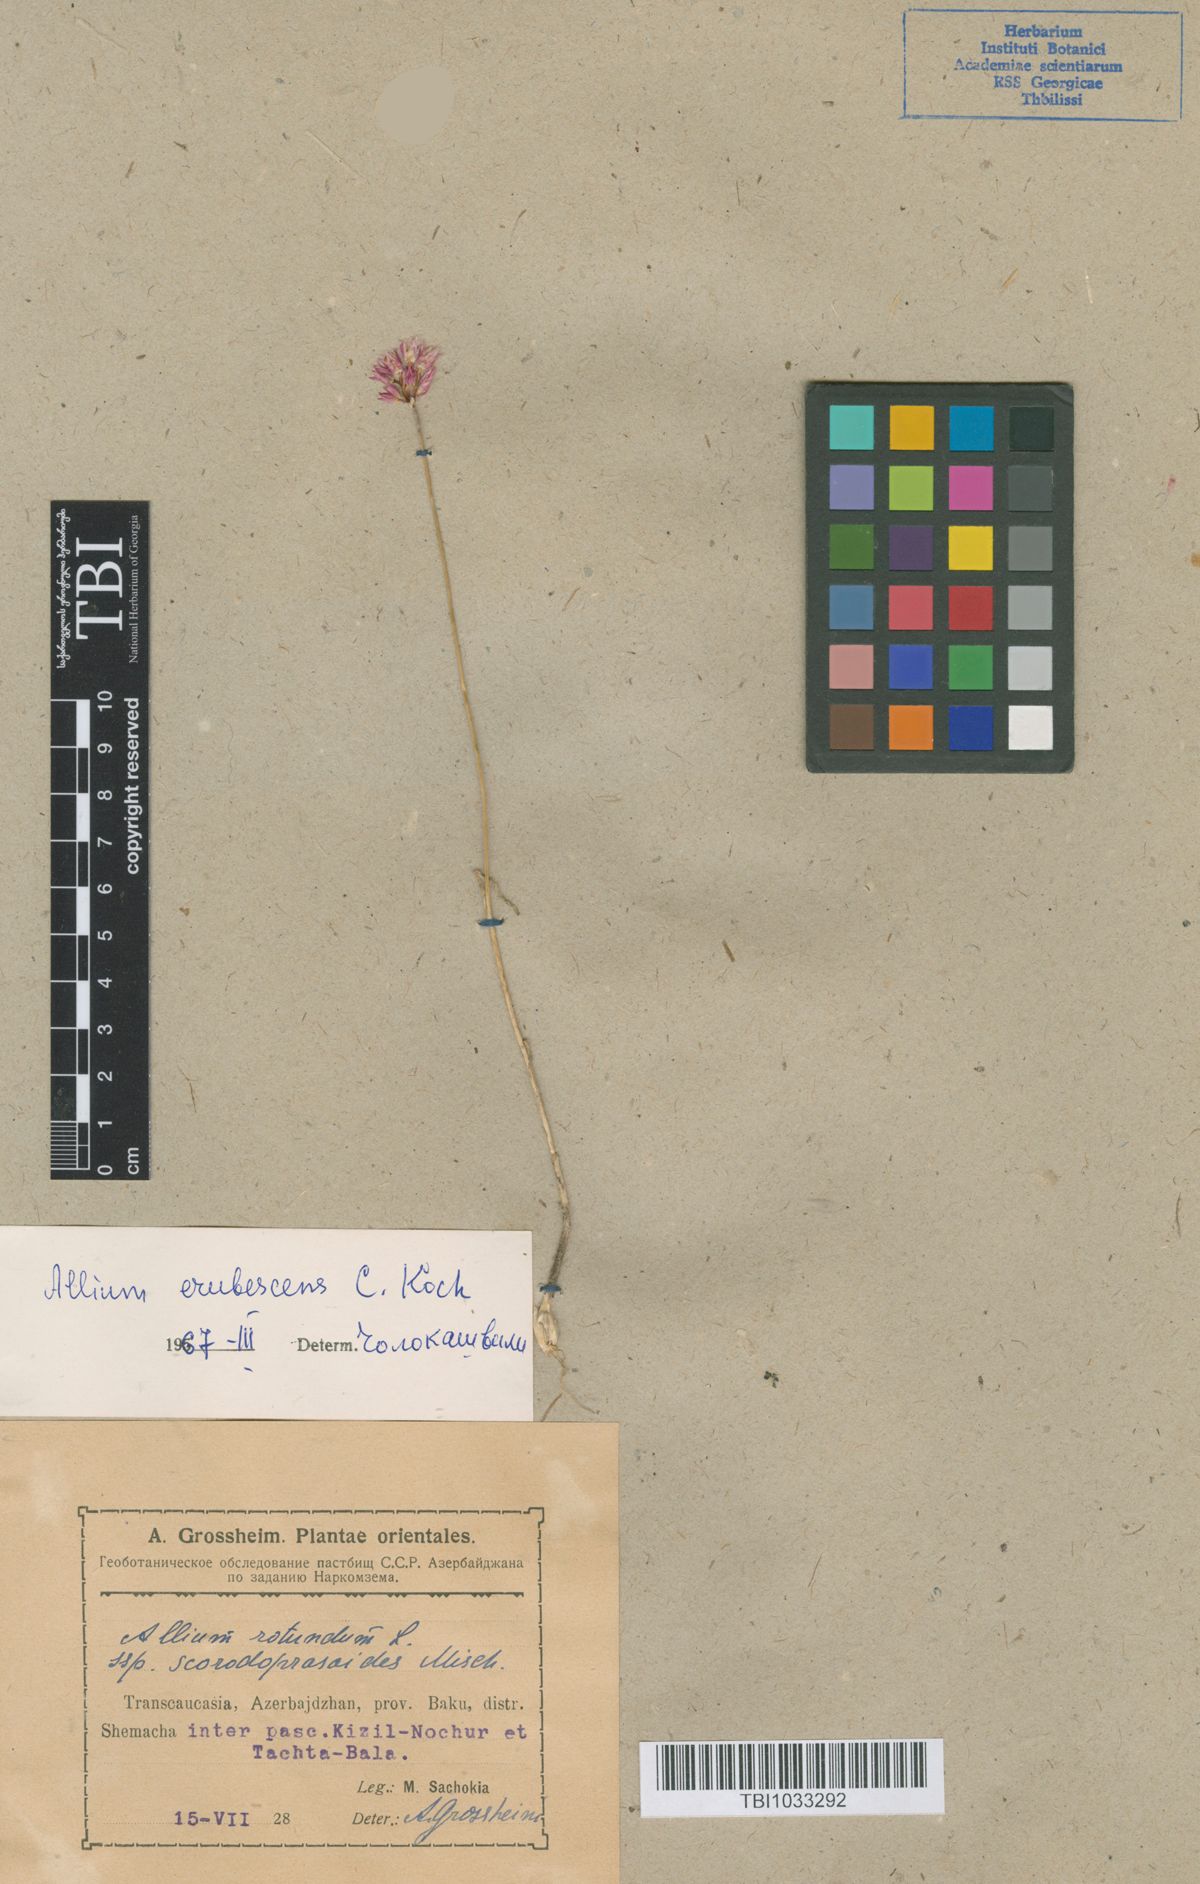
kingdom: Plantae
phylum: Tracheophyta
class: Liliopsida
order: Asparagales
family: Amaryllidaceae
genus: Allium
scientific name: Allium erubescens
